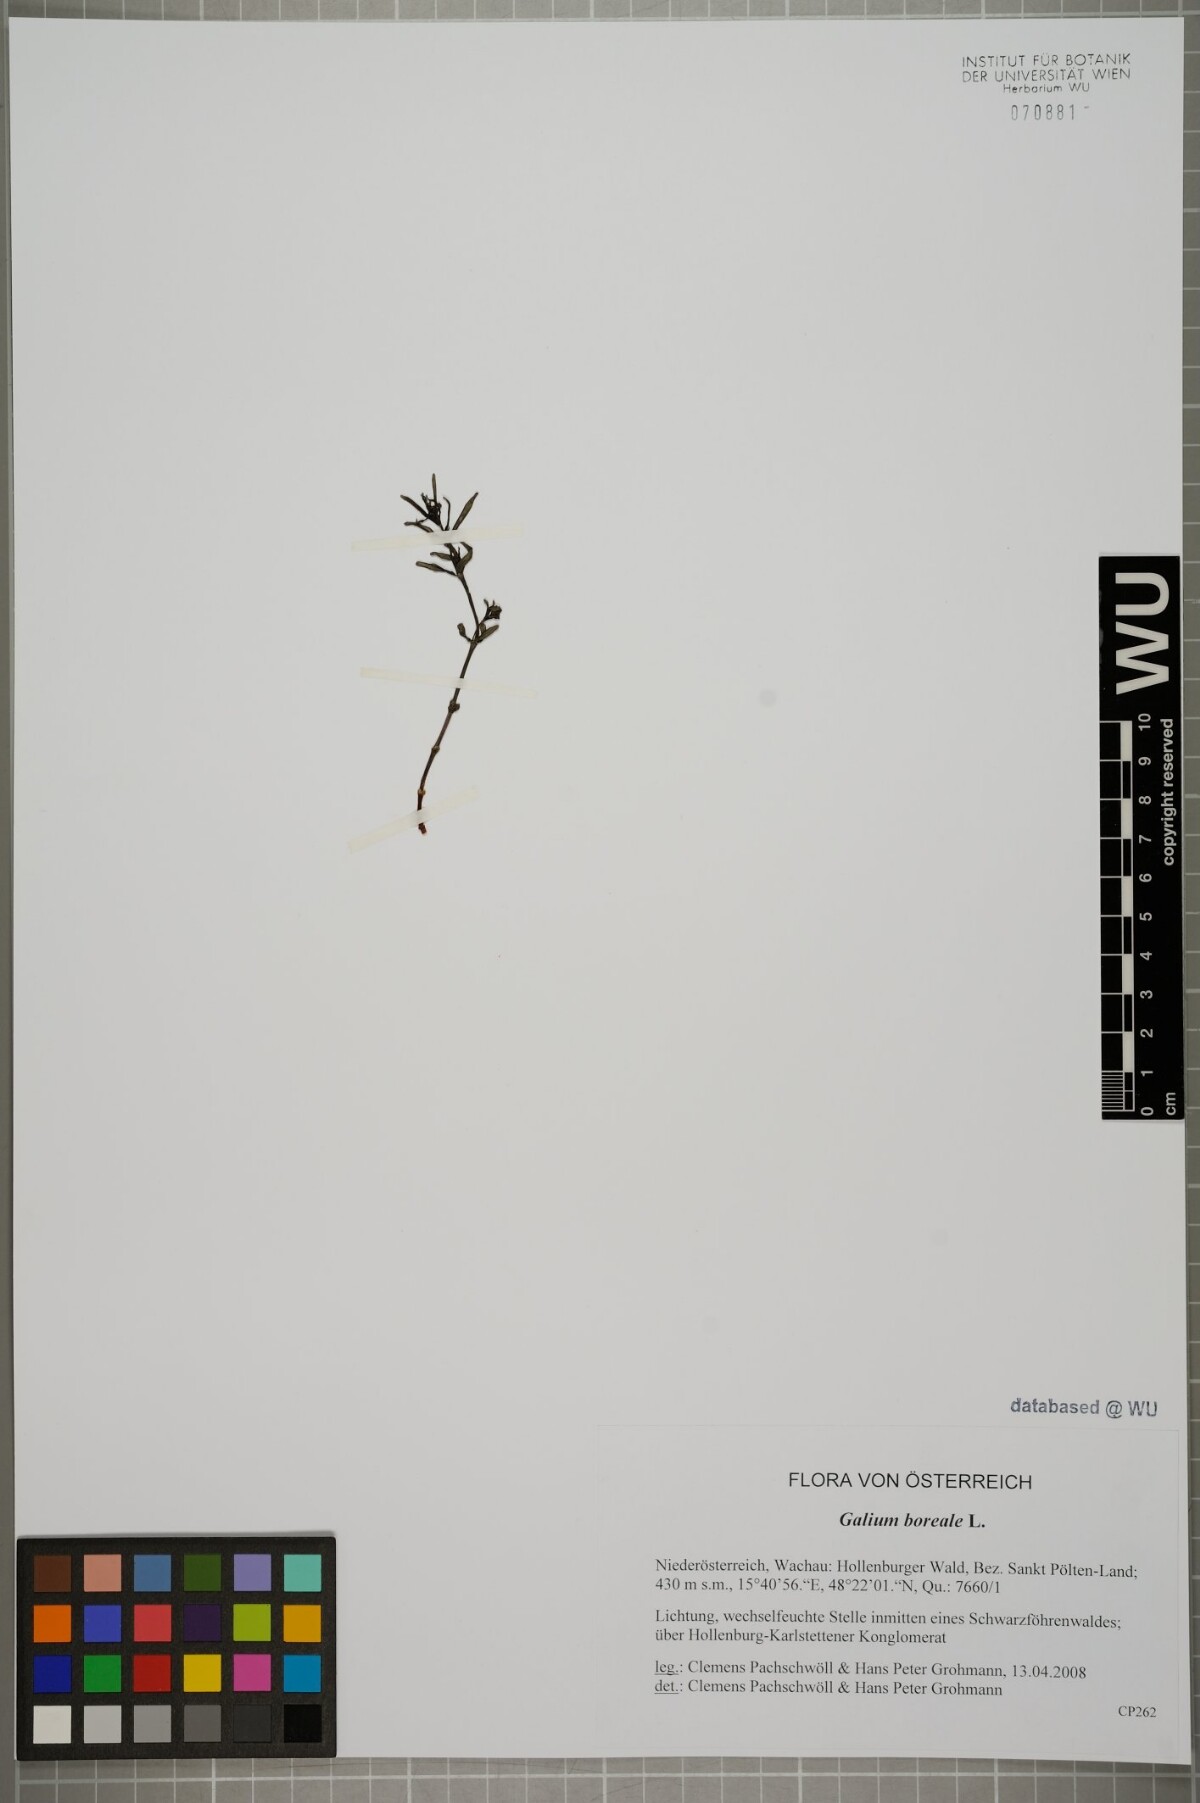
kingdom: Plantae
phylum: Tracheophyta
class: Magnoliopsida
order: Gentianales
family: Rubiaceae
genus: Galium
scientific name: Galium boreale
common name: Northern bedstraw
